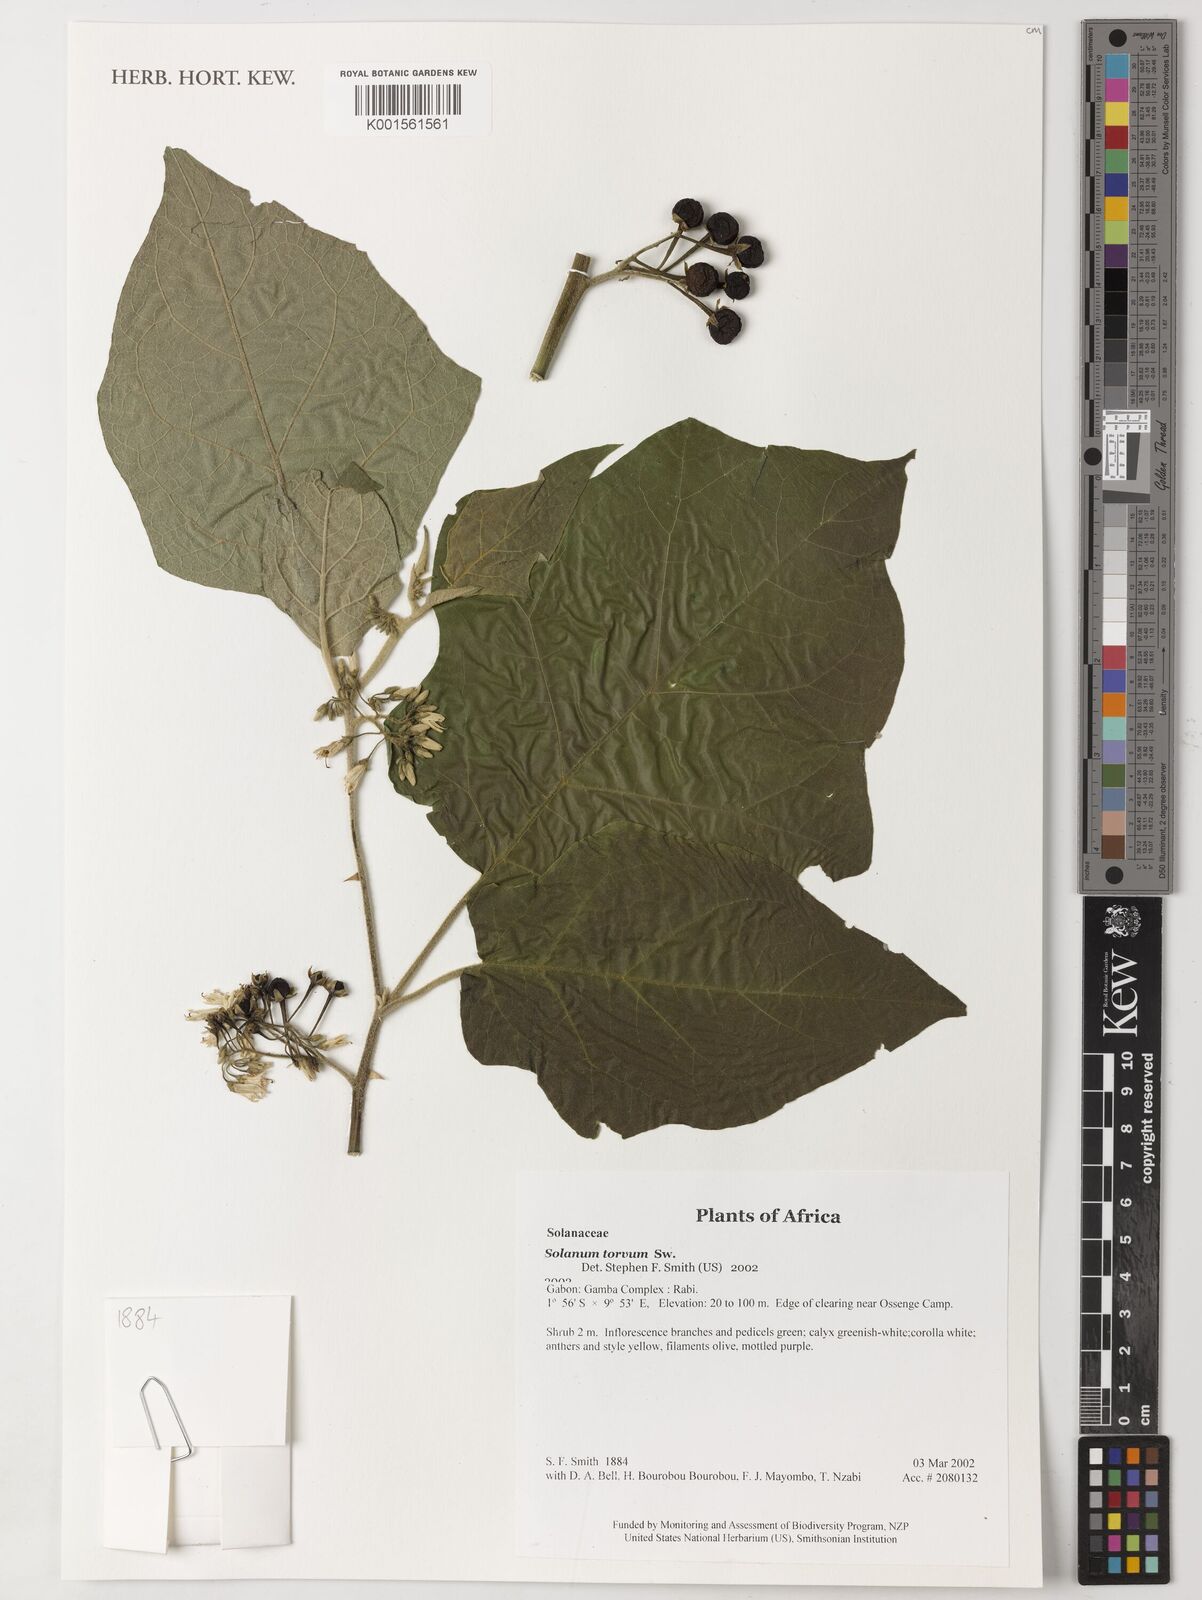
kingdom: Plantae
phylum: Tracheophyta
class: Magnoliopsida
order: Solanales
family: Solanaceae
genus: Solanum
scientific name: Solanum torvum
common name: Turkey berry
